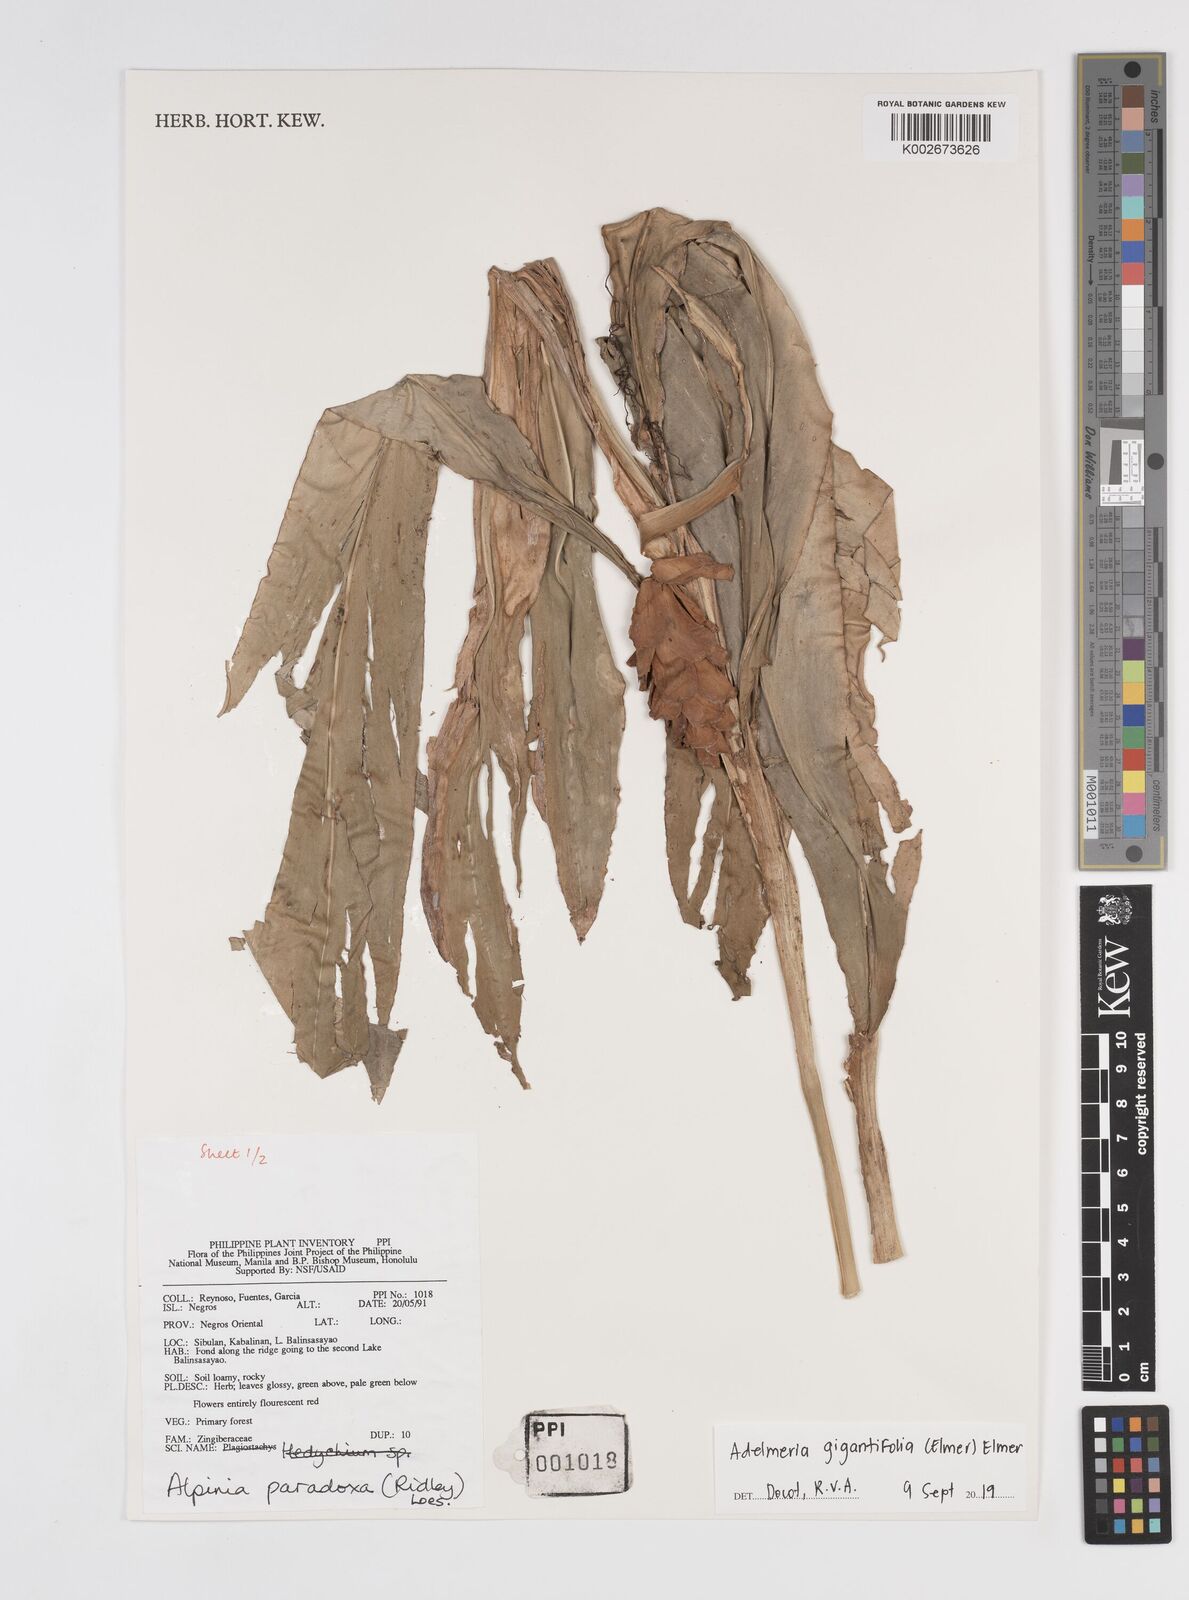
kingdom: Plantae
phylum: Tracheophyta
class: Liliopsida
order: Zingiberales
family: Zingiberaceae
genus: Adelmeria
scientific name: Adelmeria gigantifolia
